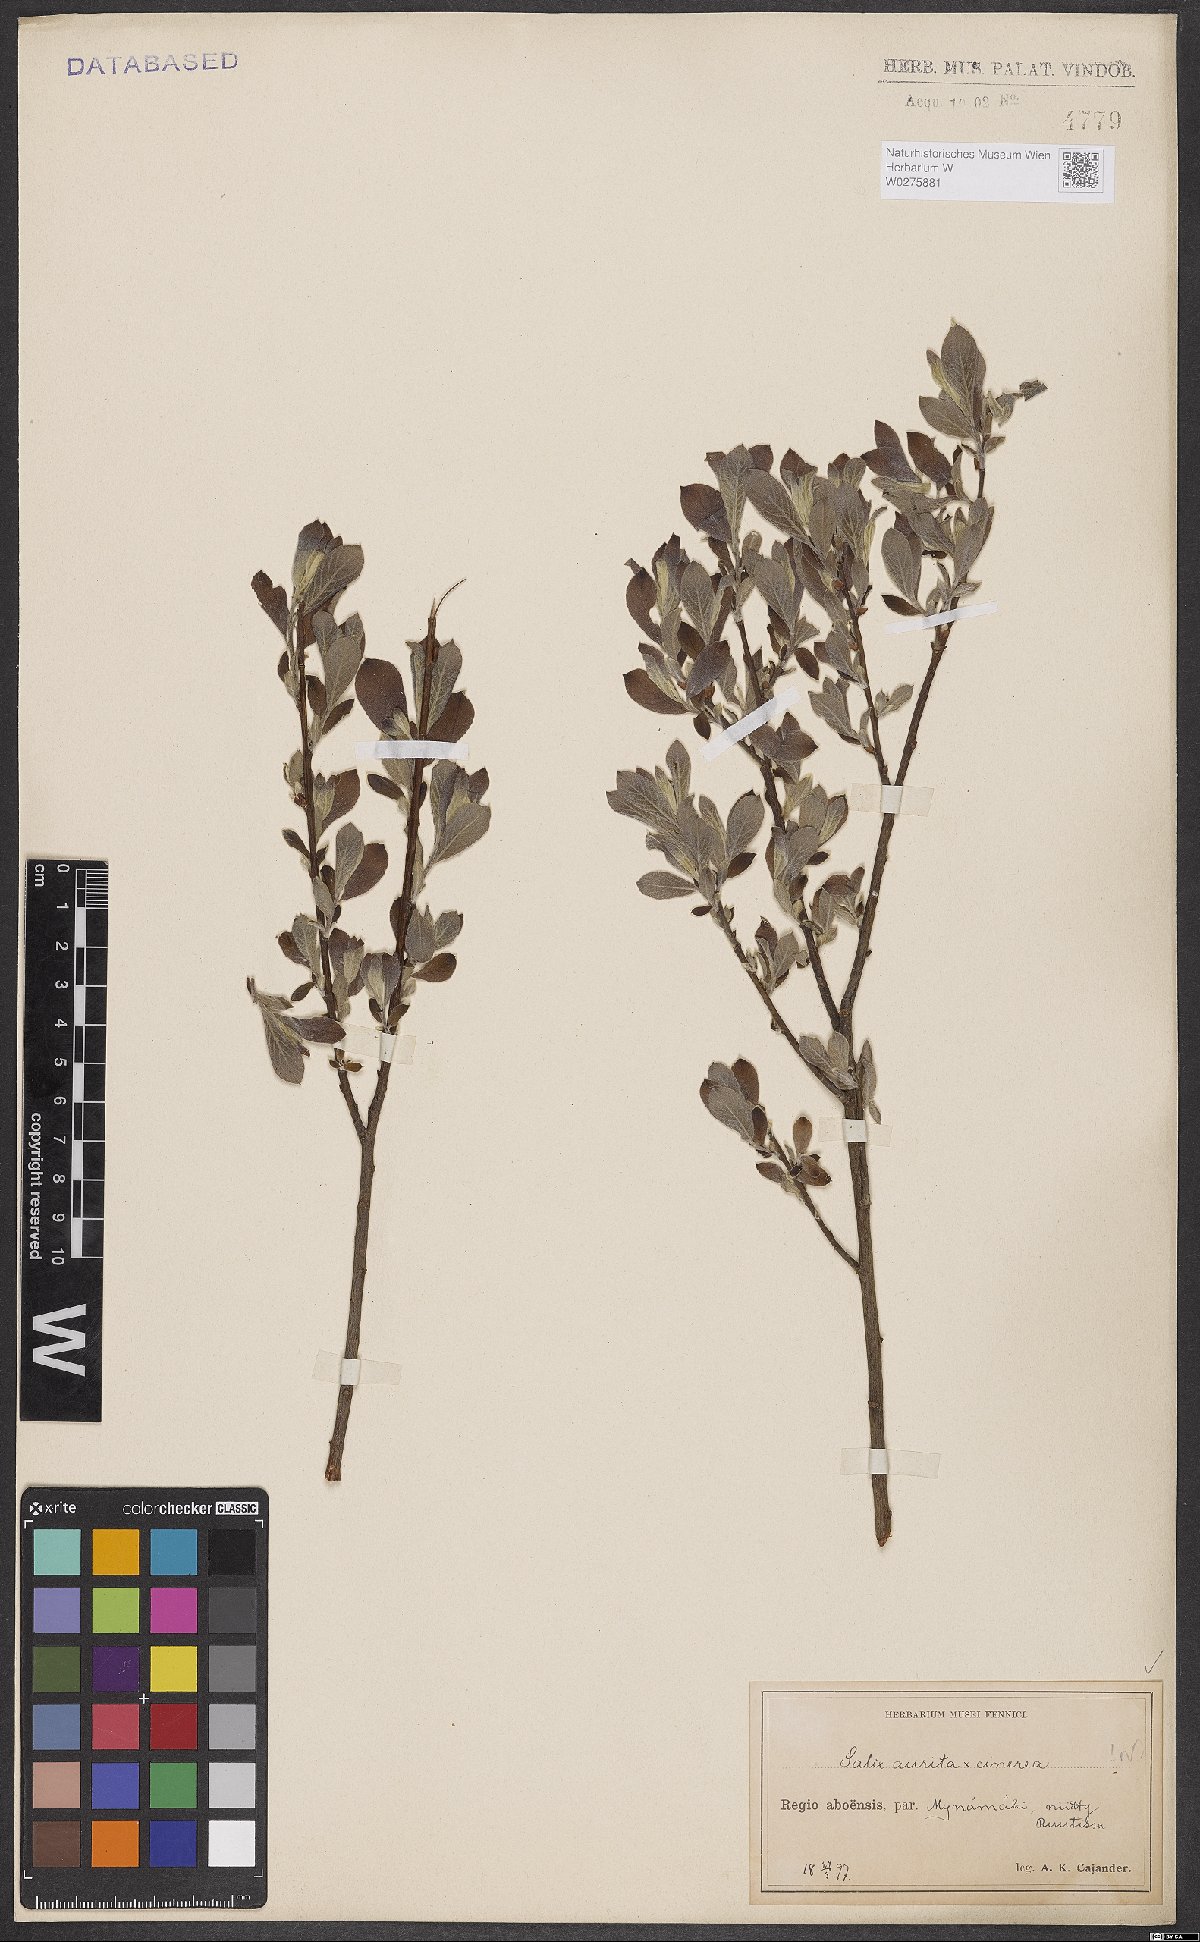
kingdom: Plantae
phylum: Tracheophyta
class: Magnoliopsida
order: Malpighiales
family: Salicaceae
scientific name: Salicaceae
